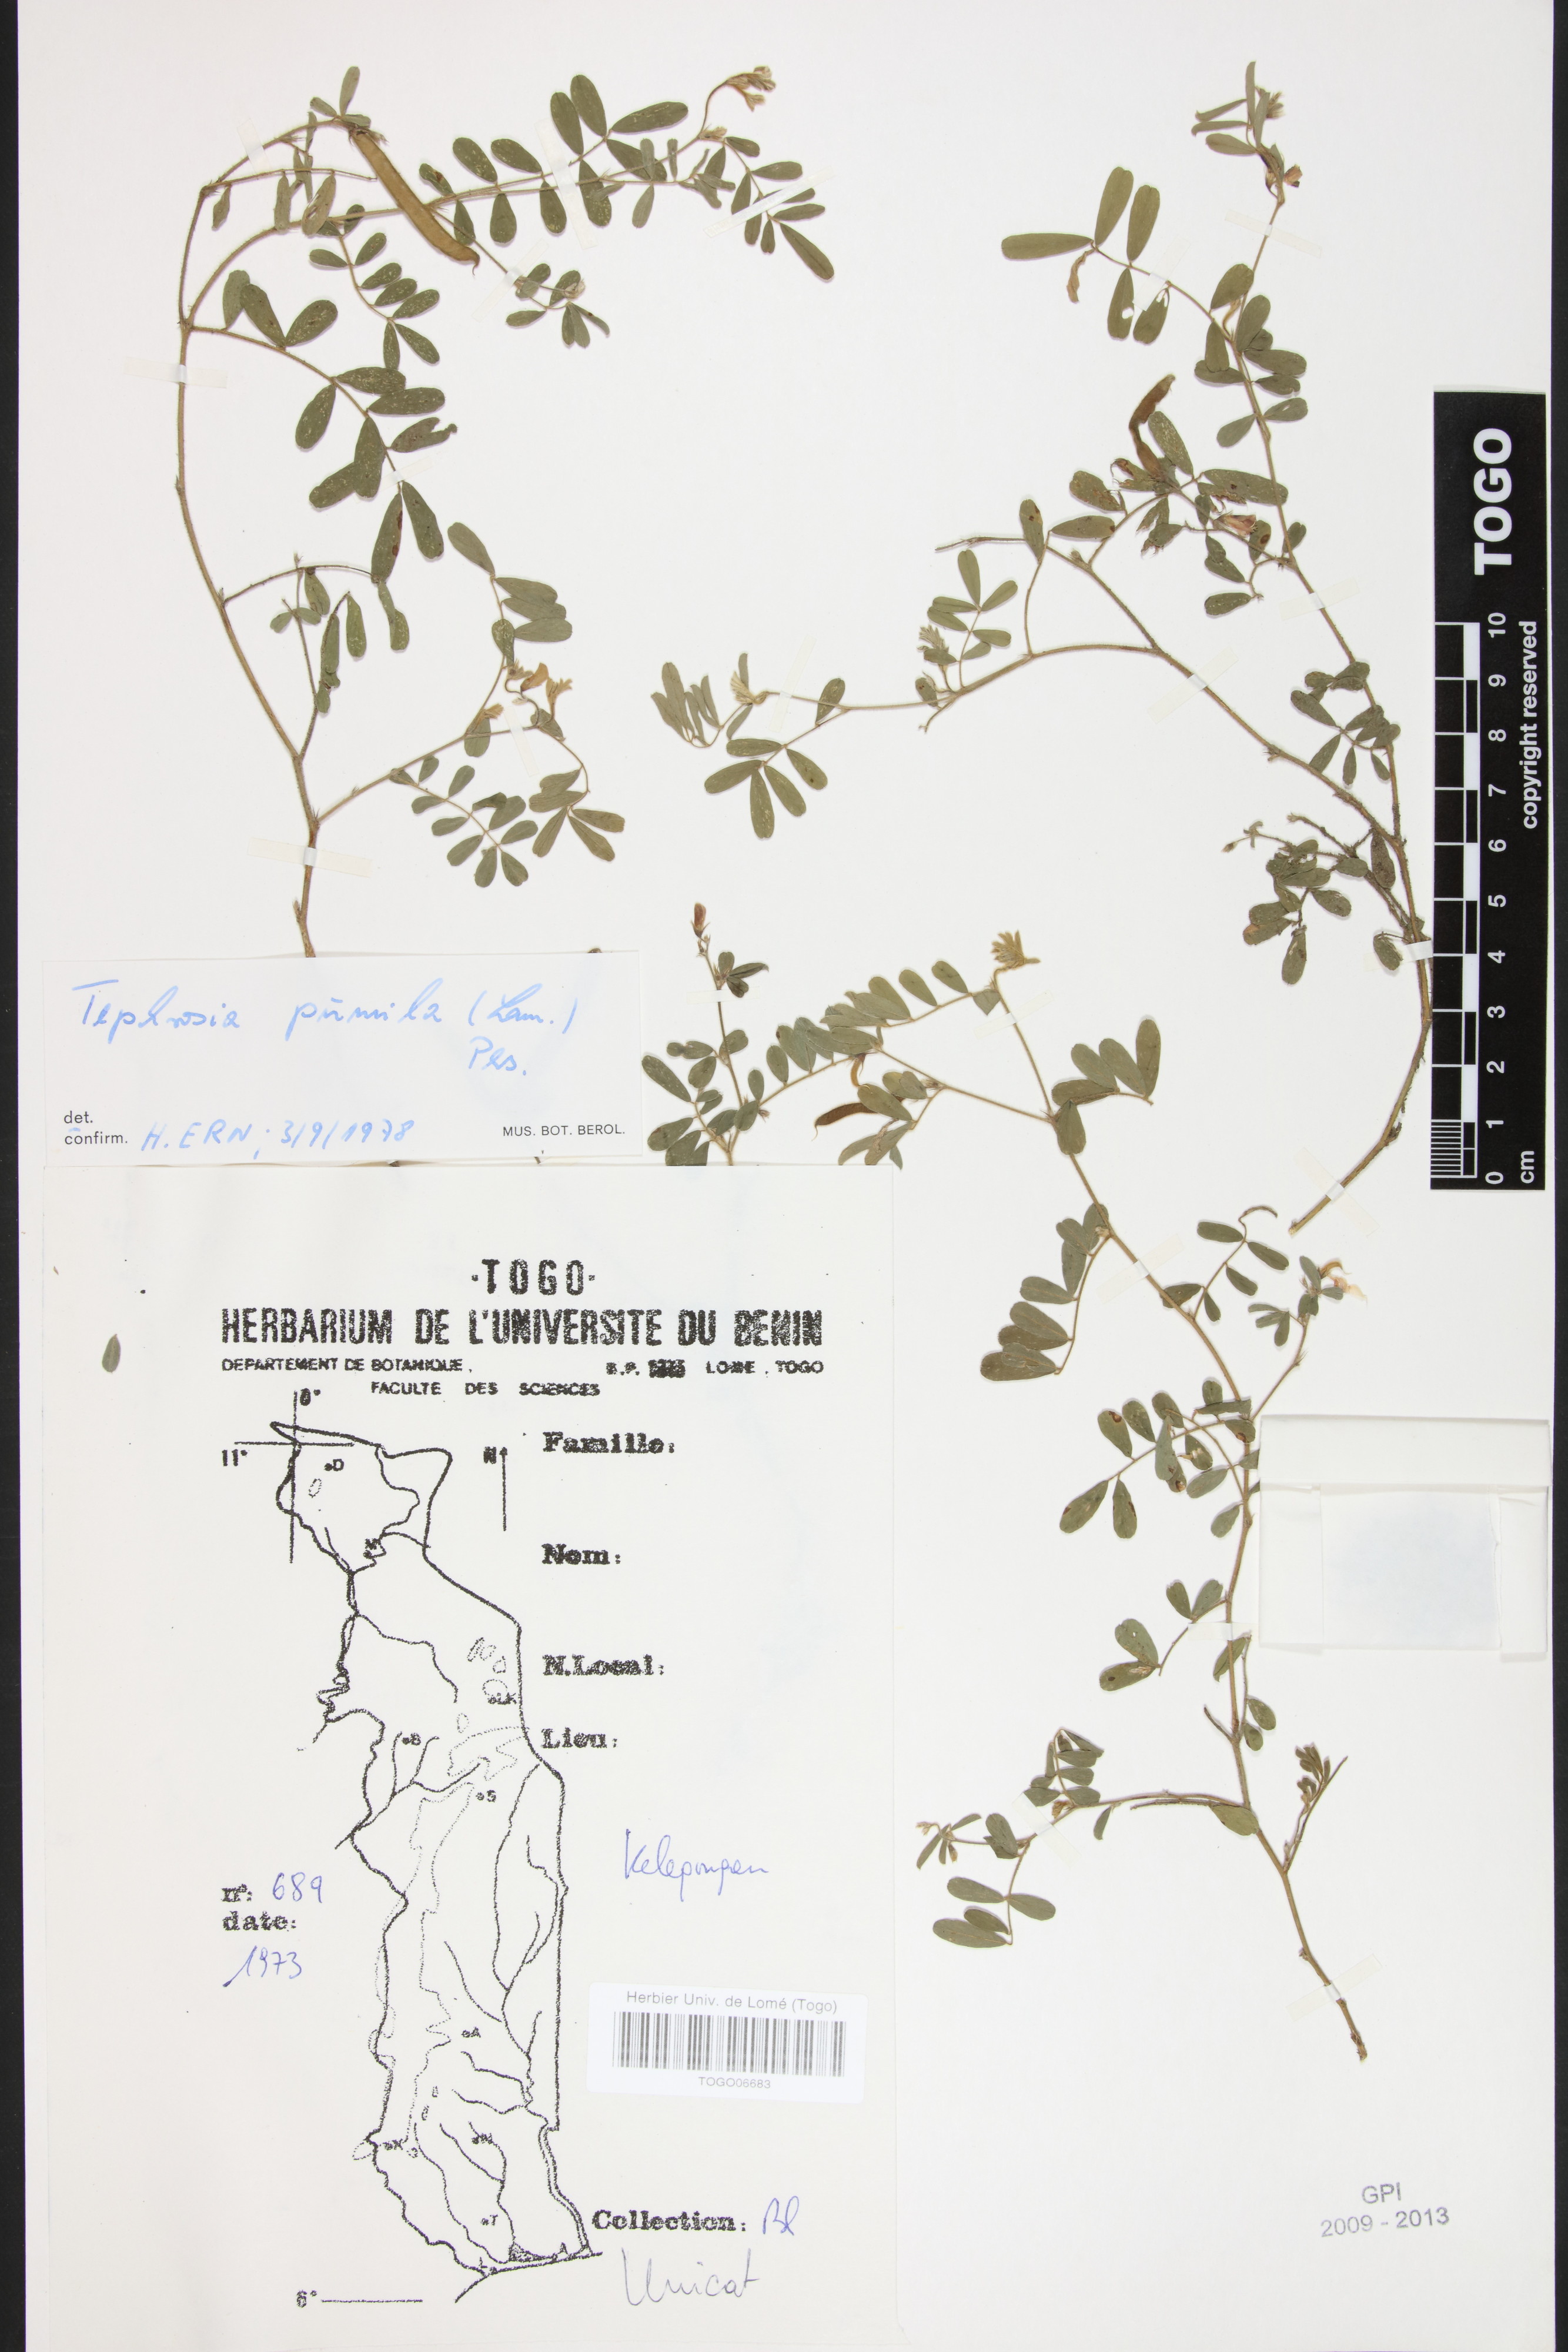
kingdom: Plantae
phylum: Tracheophyta
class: Magnoliopsida
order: Fabales
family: Fabaceae
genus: Tephrosia
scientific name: Tephrosia pumila
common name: Indigo sauvage
